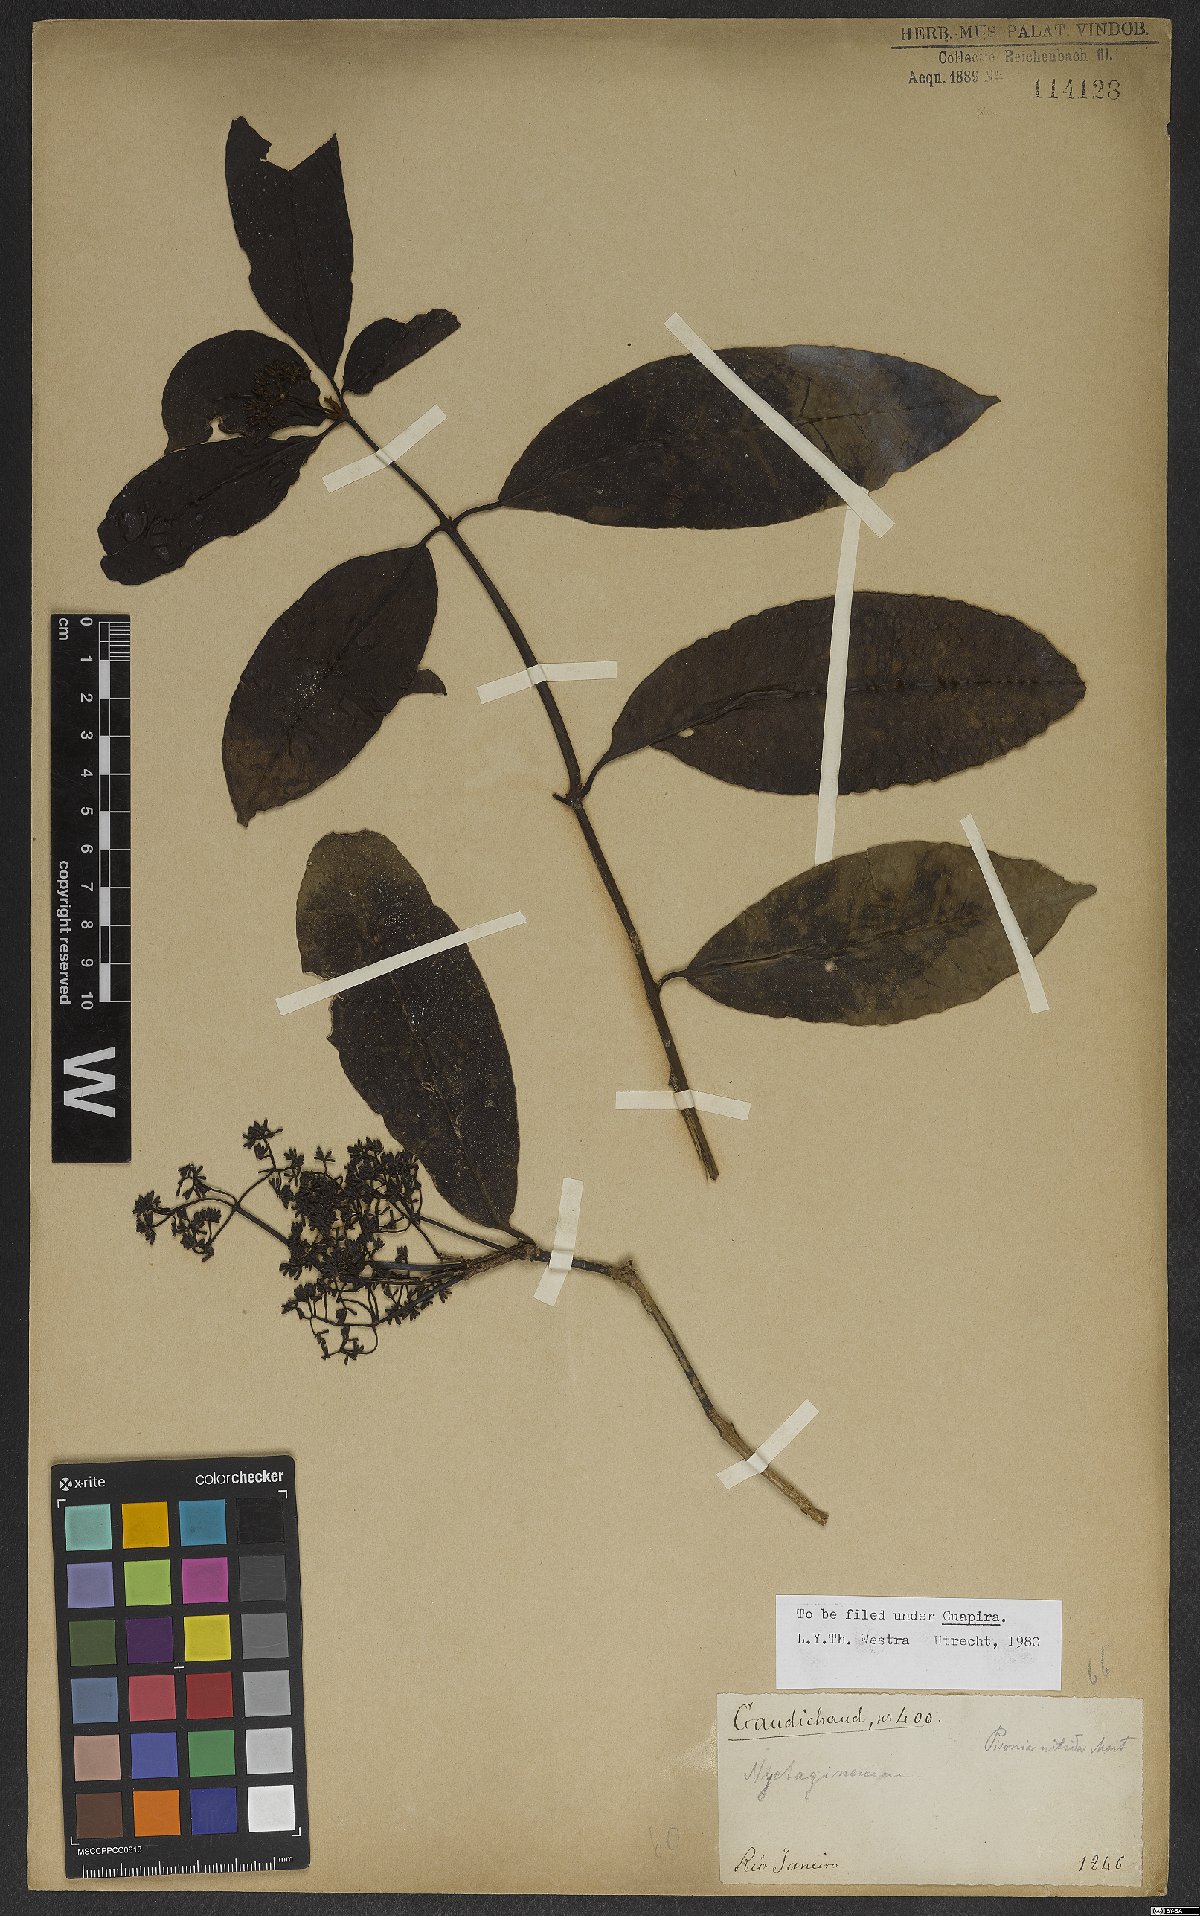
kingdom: Plantae
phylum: Tracheophyta
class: Magnoliopsida
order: Caryophyllales
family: Nyctaginaceae
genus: Guapira
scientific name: Guapira nitida
